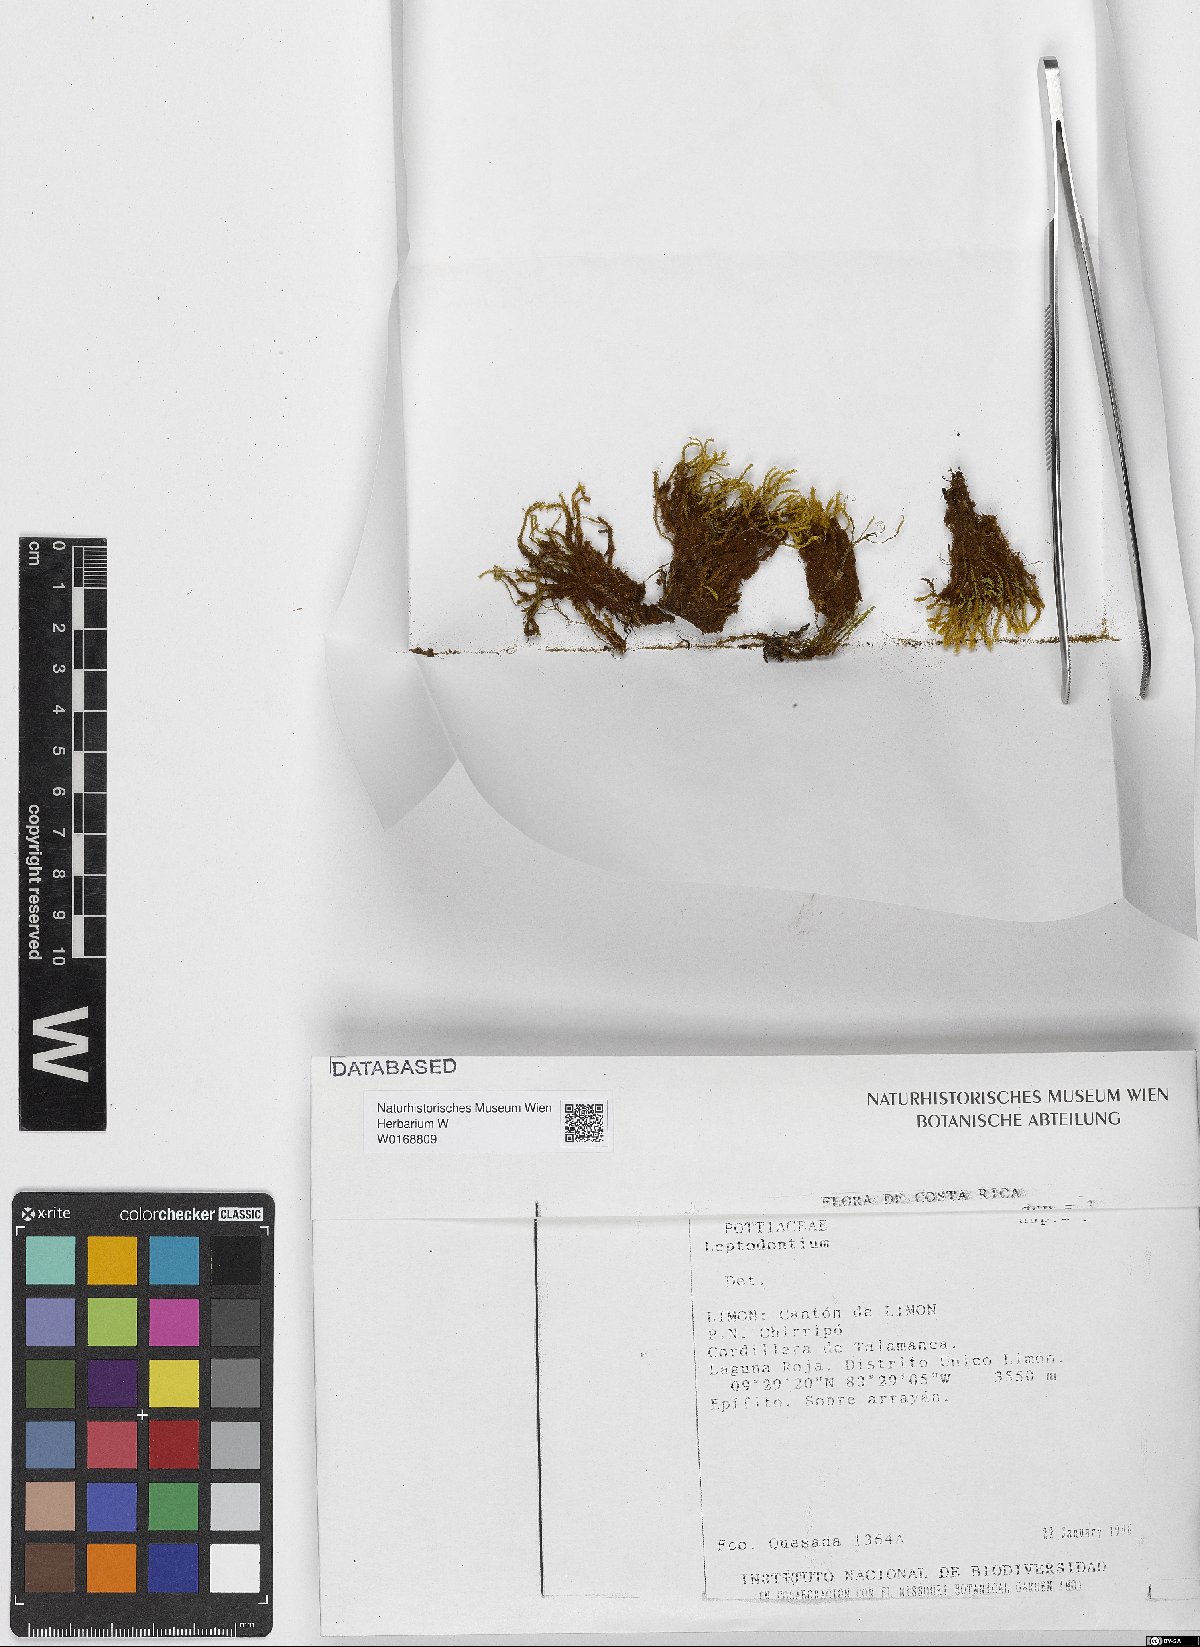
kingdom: Plantae
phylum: Bryophyta
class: Bryopsida
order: Pottiales
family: Pottiaceae
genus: Leptodontium
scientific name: Leptodontium
